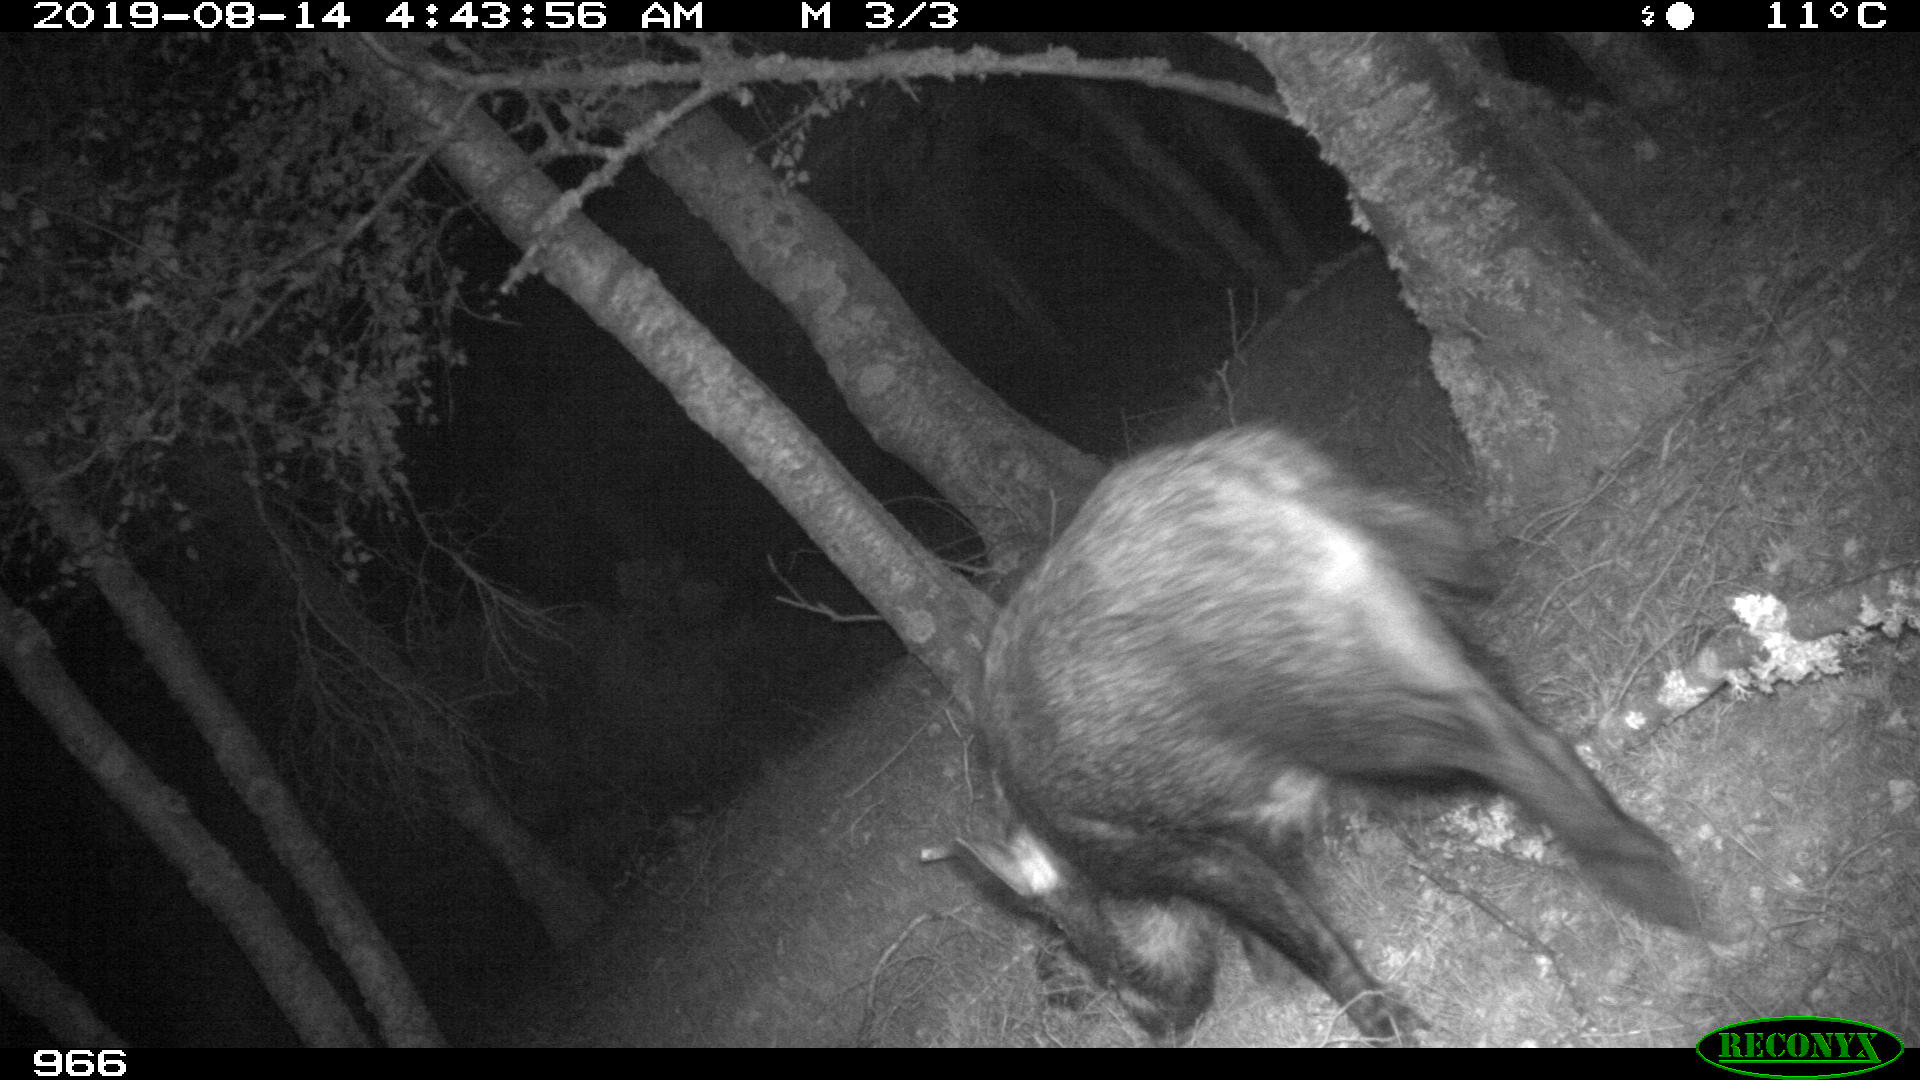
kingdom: Animalia
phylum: Chordata
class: Mammalia
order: Artiodactyla
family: Suidae
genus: Sus
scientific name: Sus scrofa
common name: Wild boar
